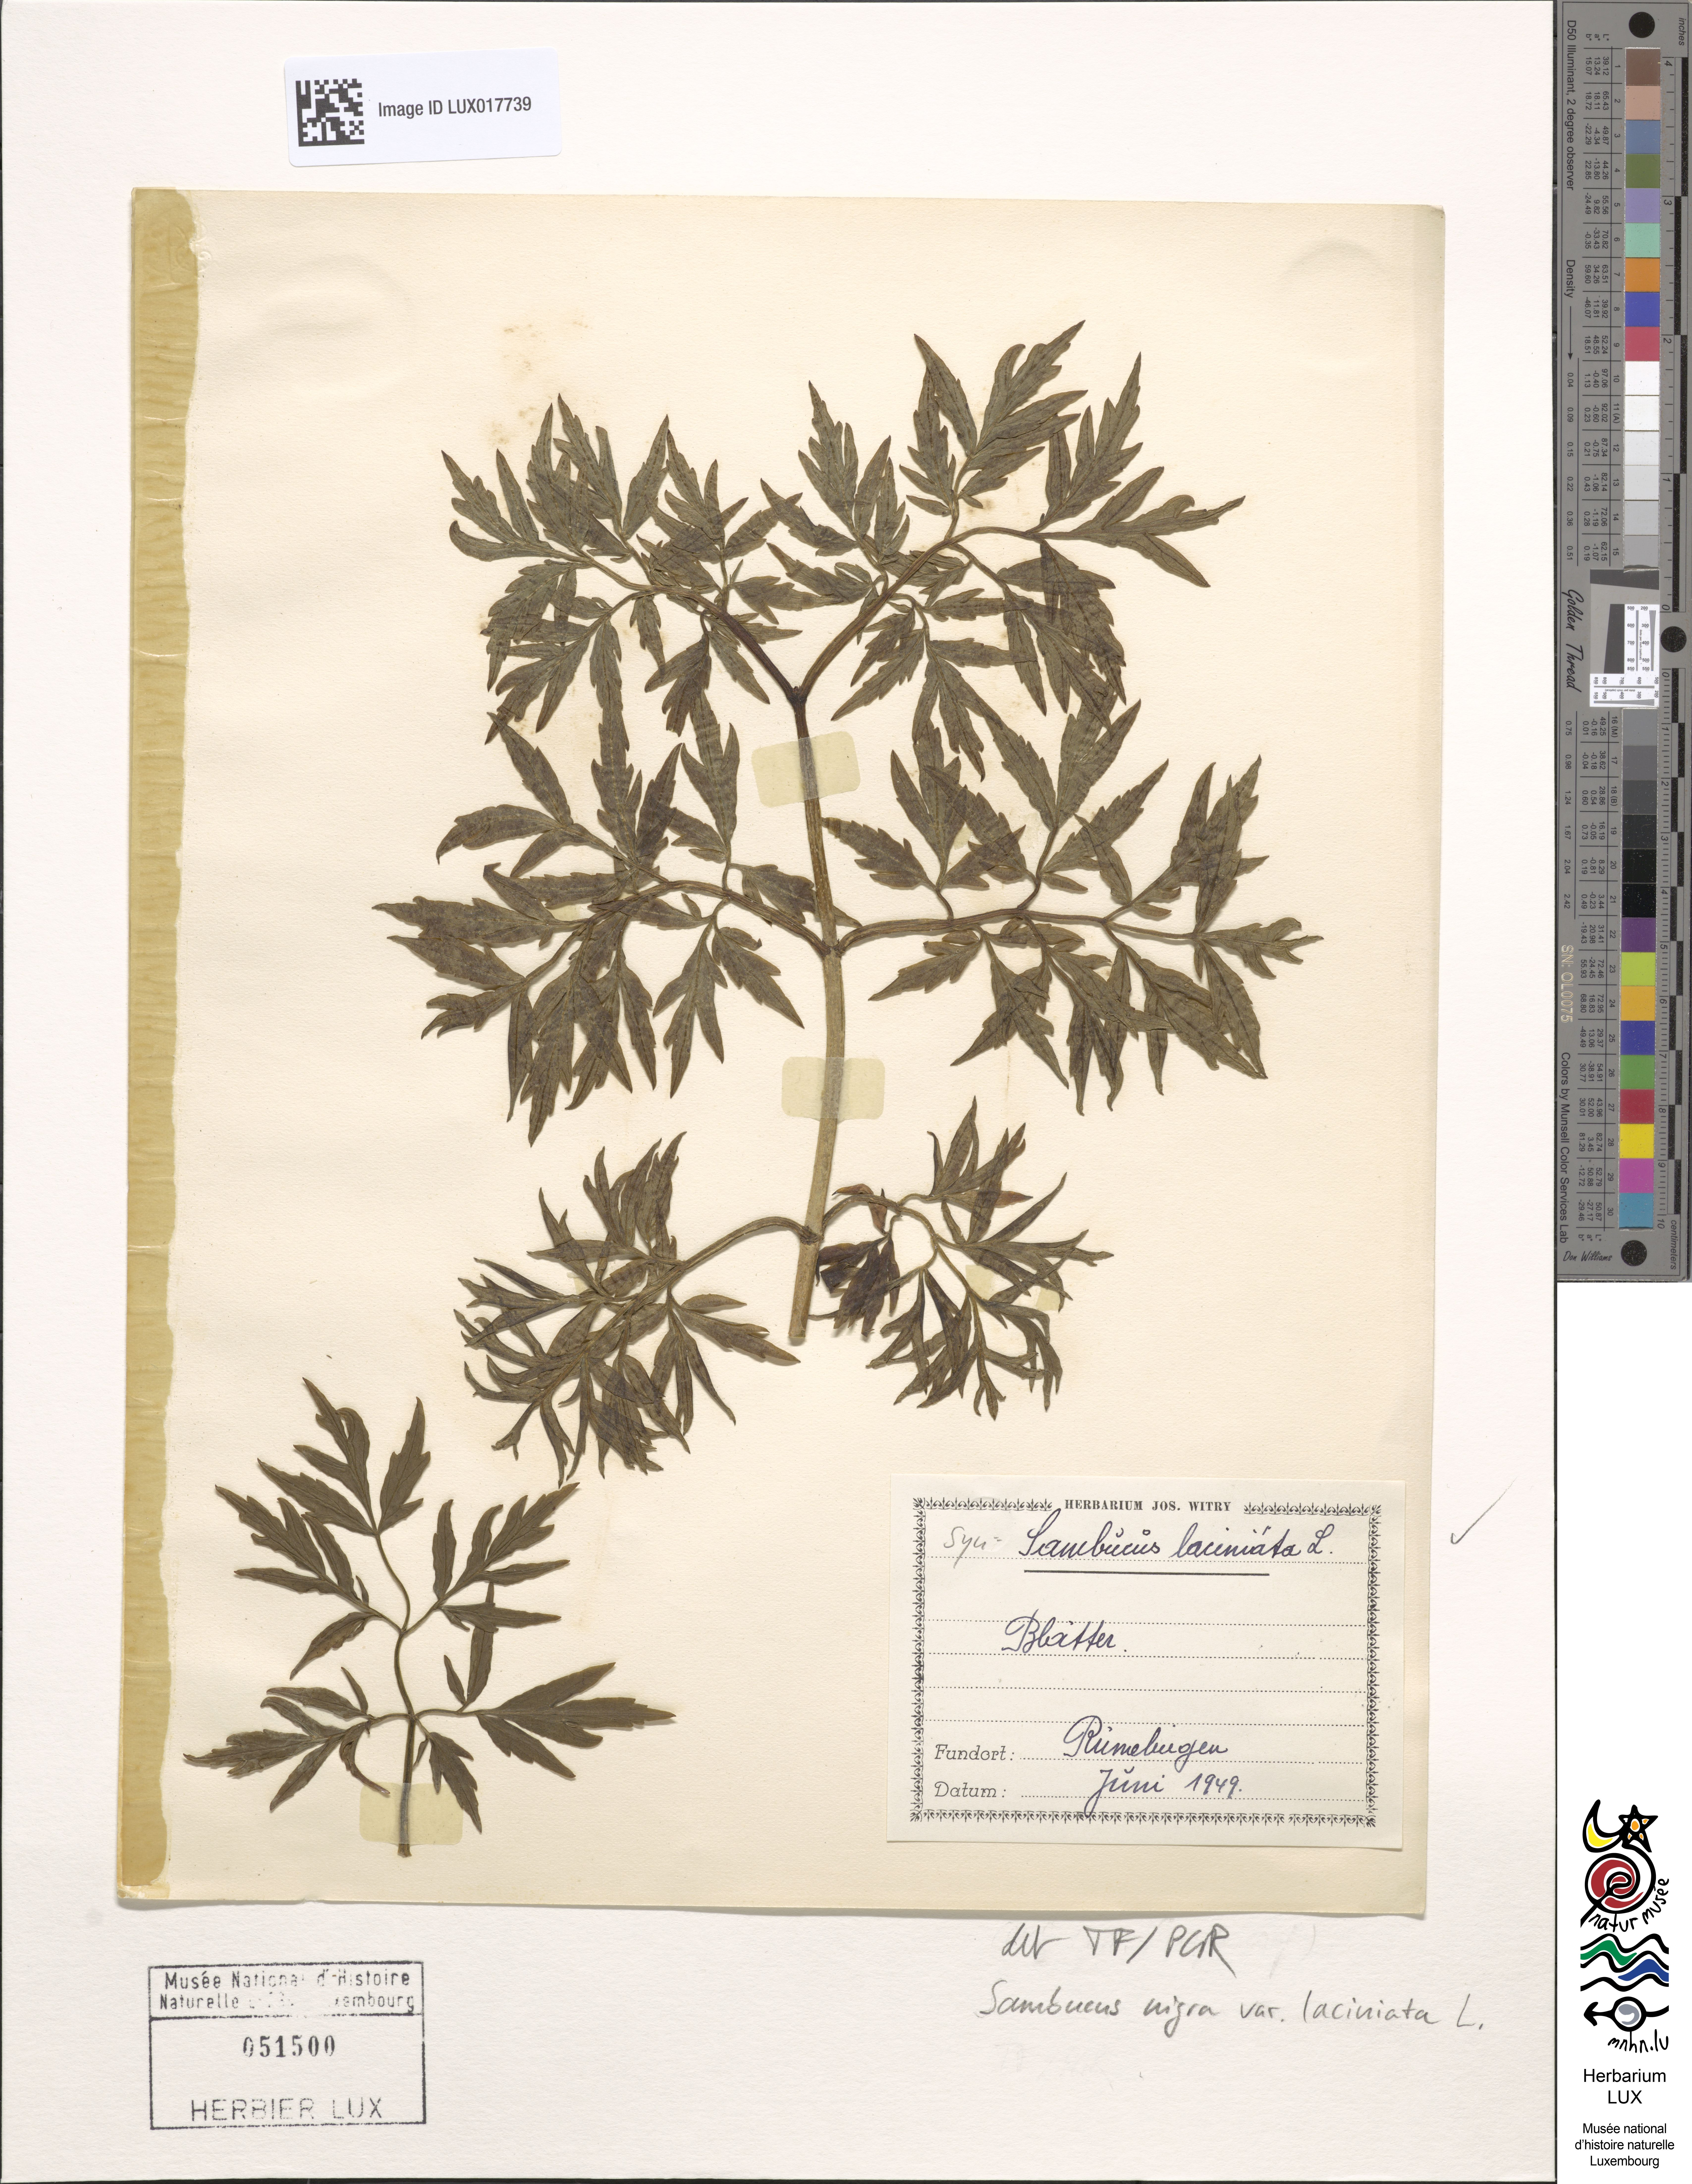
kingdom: Plantae
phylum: Tracheophyta
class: Magnoliopsida
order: Dipsacales
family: Viburnaceae
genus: Sambucus
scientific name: Sambucus nigra
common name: Elder
